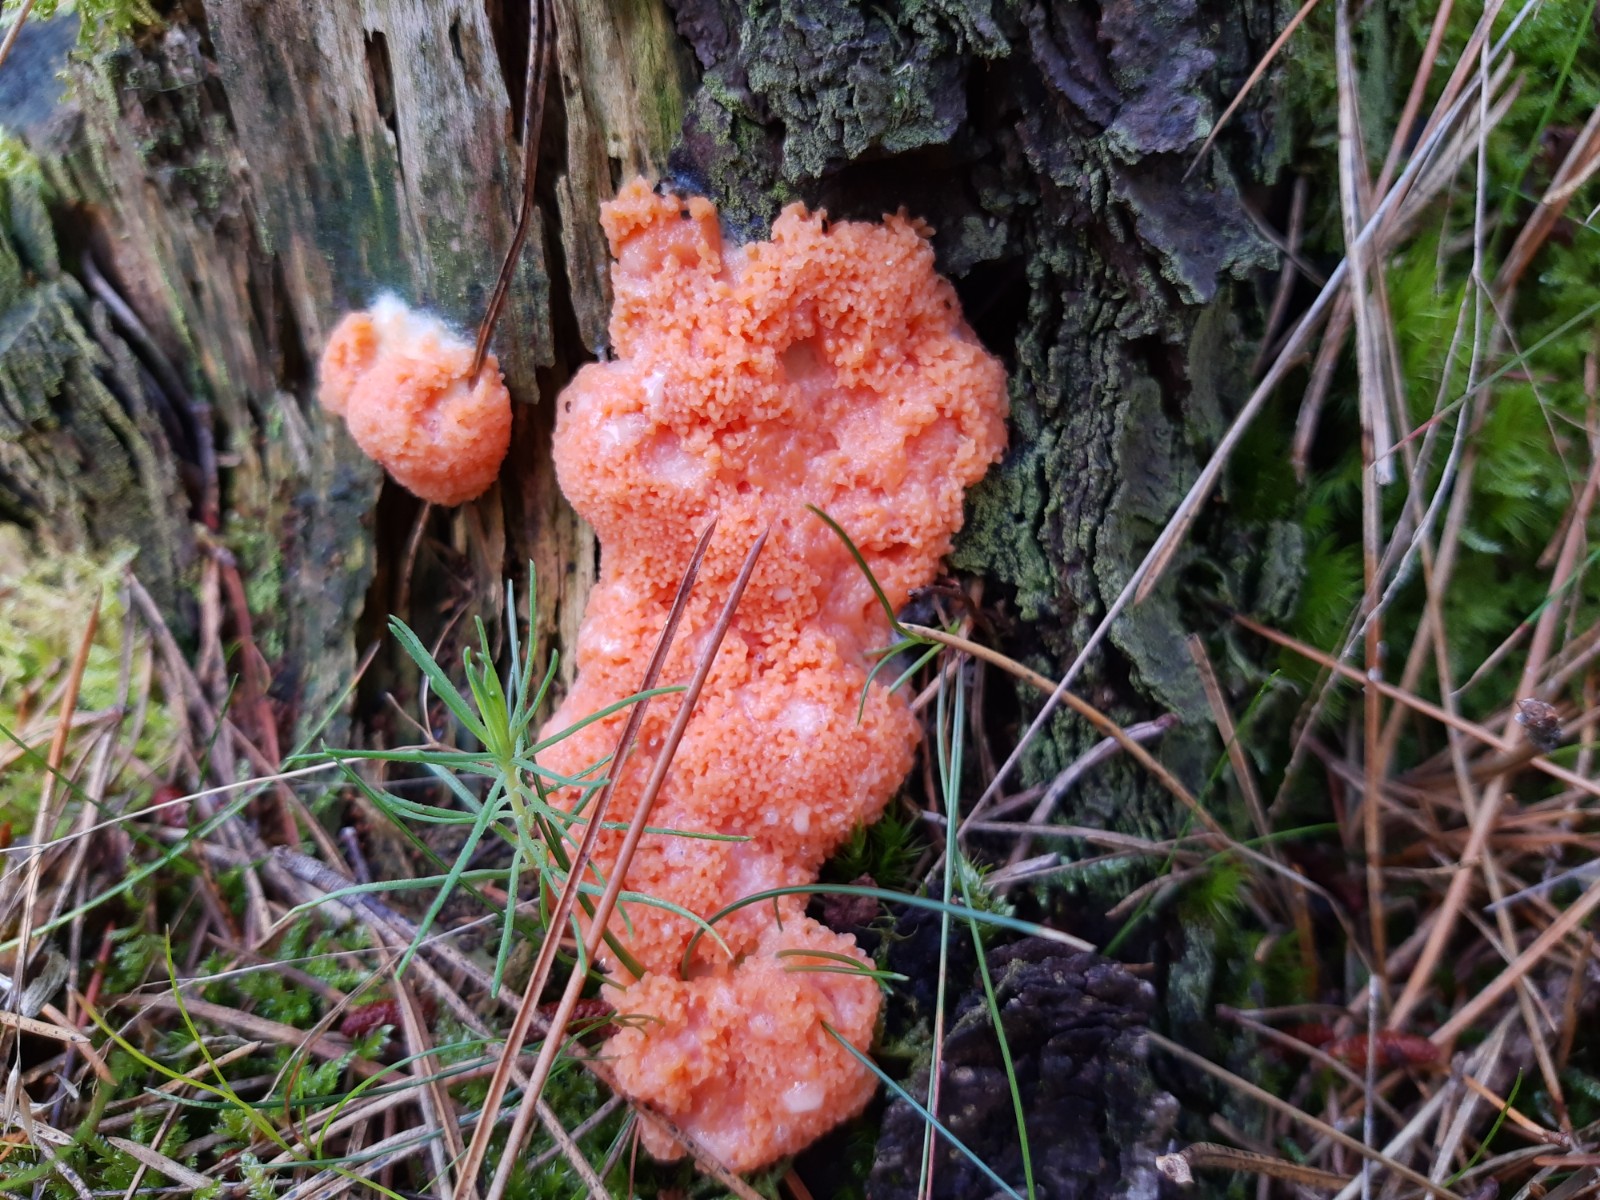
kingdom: Protozoa
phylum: Mycetozoa
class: Myxomycetes
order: Cribrariales
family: Tubiferaceae
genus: Tubifera
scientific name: Tubifera ferruginosa
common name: kanel-støvrør
